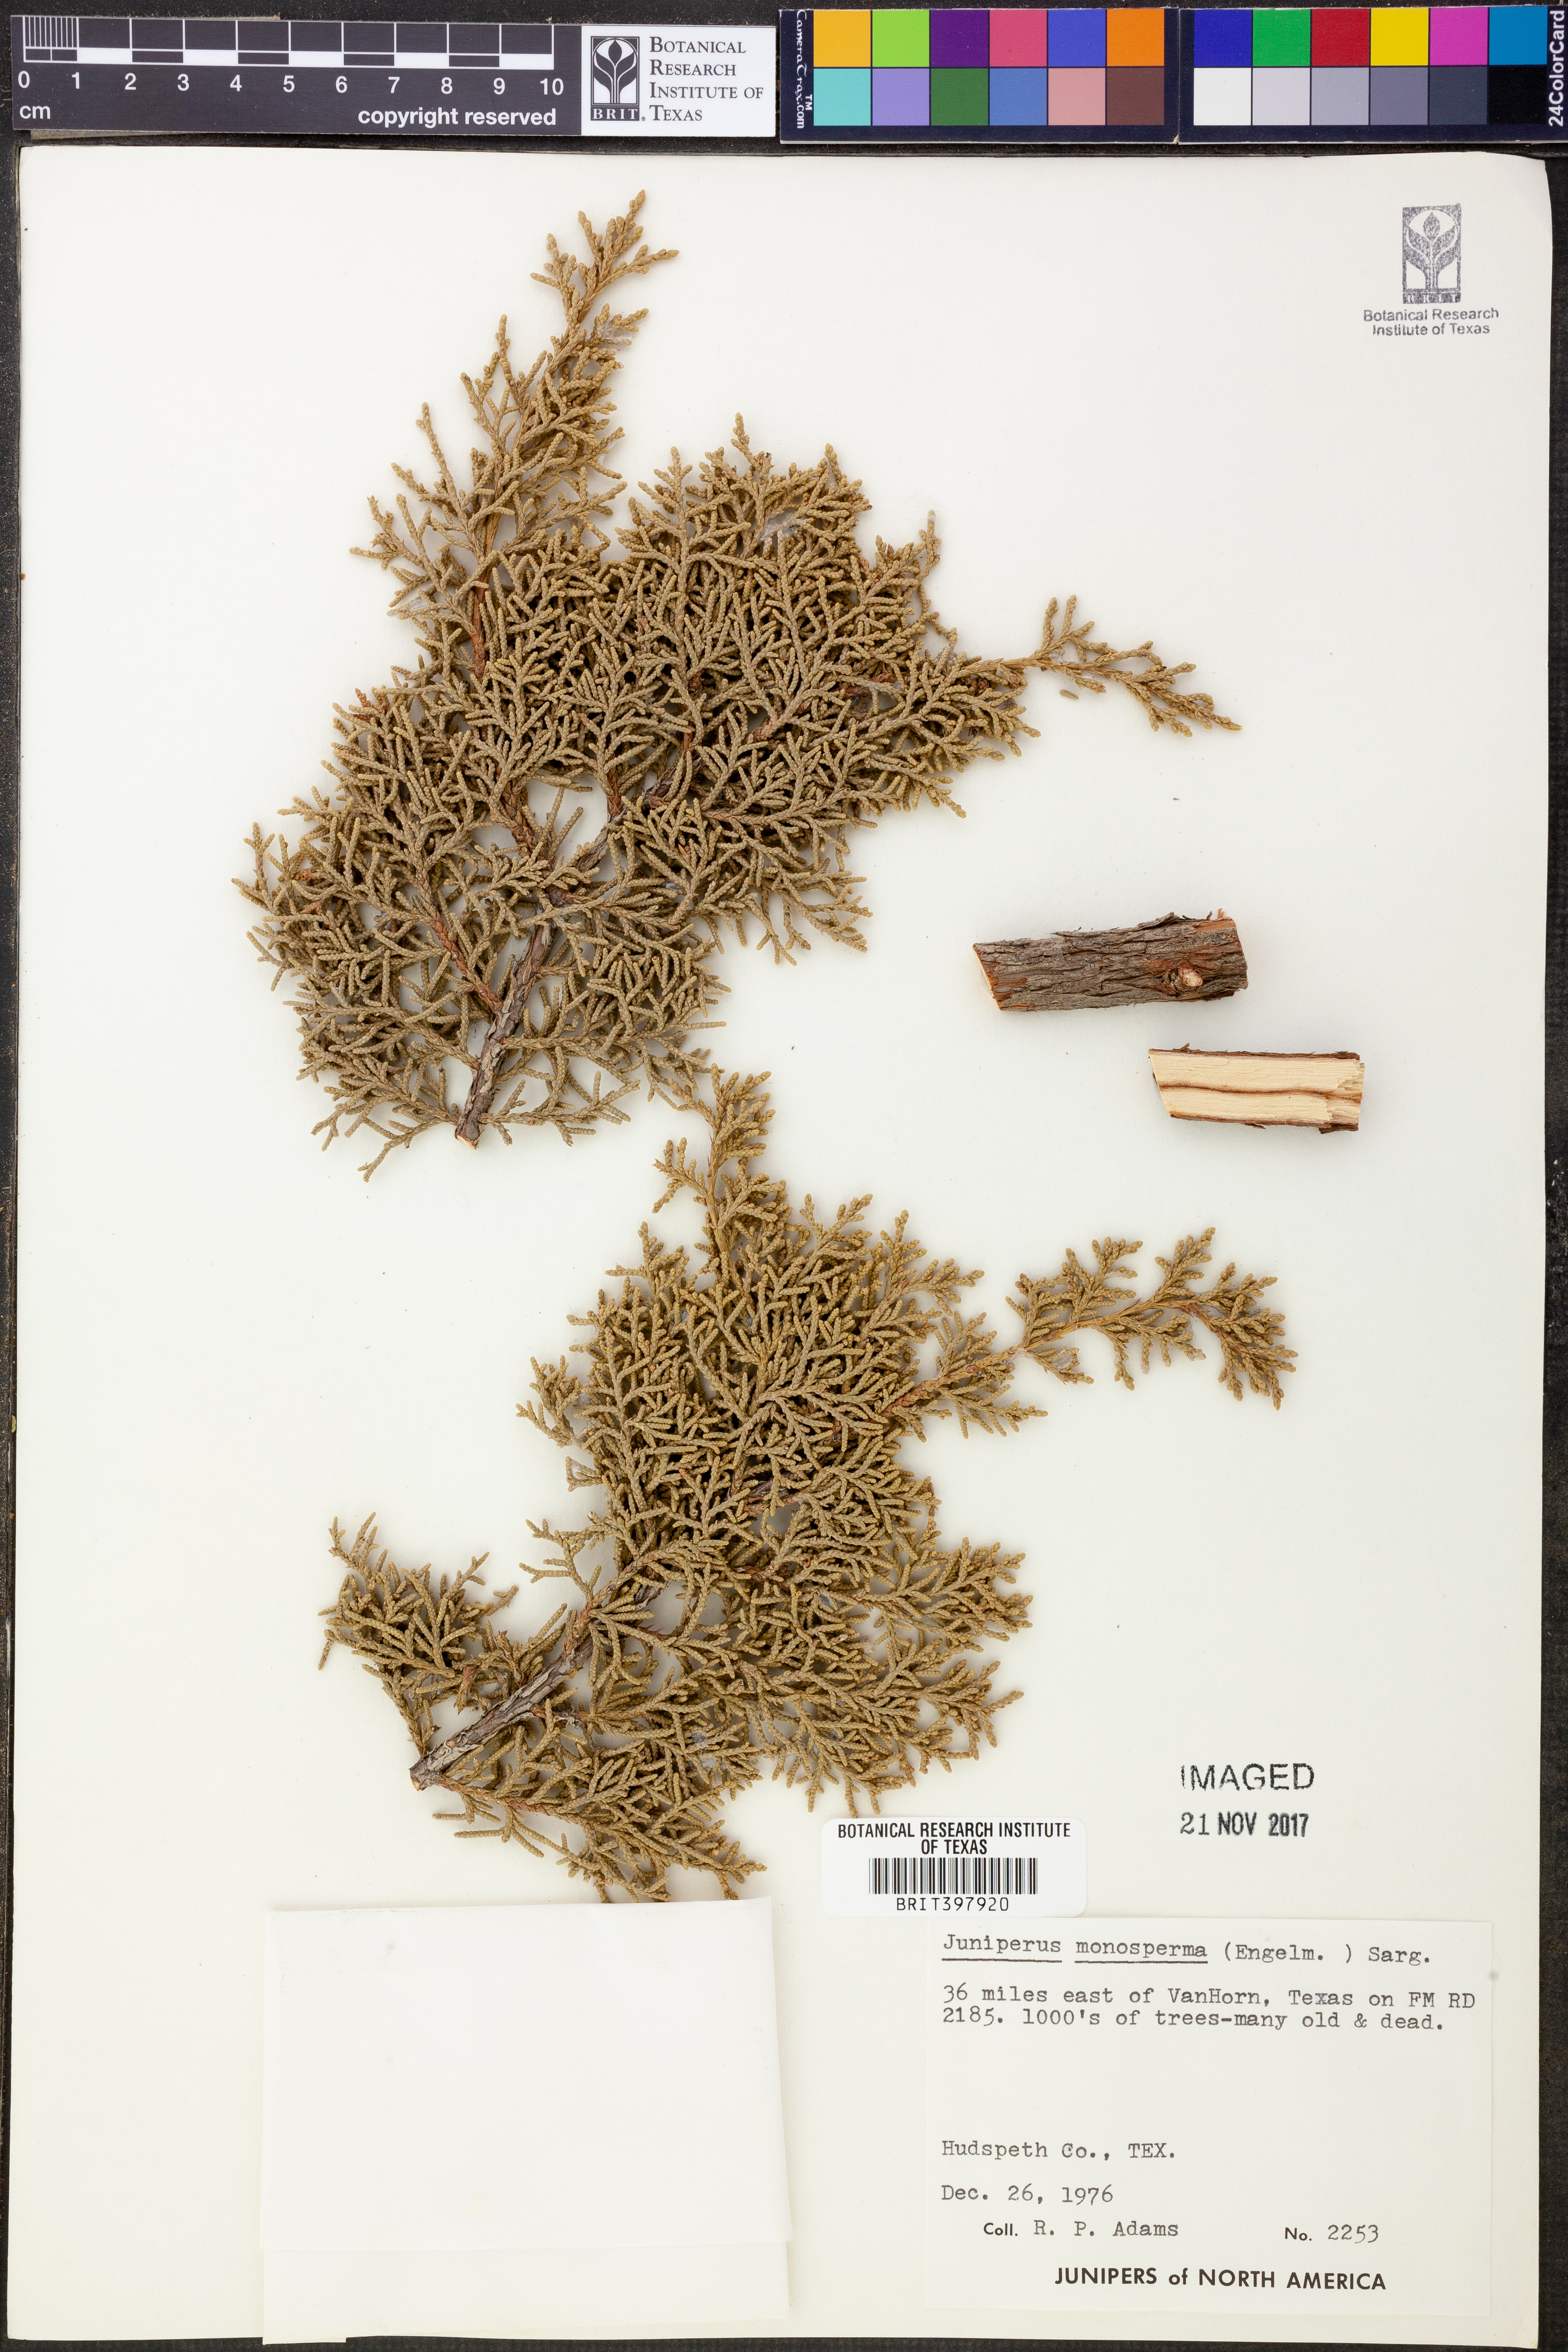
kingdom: Plantae
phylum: Tracheophyta
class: Pinopsida
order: Pinales
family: Cupressaceae
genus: Juniperus
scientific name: Juniperus monosperma
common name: One-seed juniper
